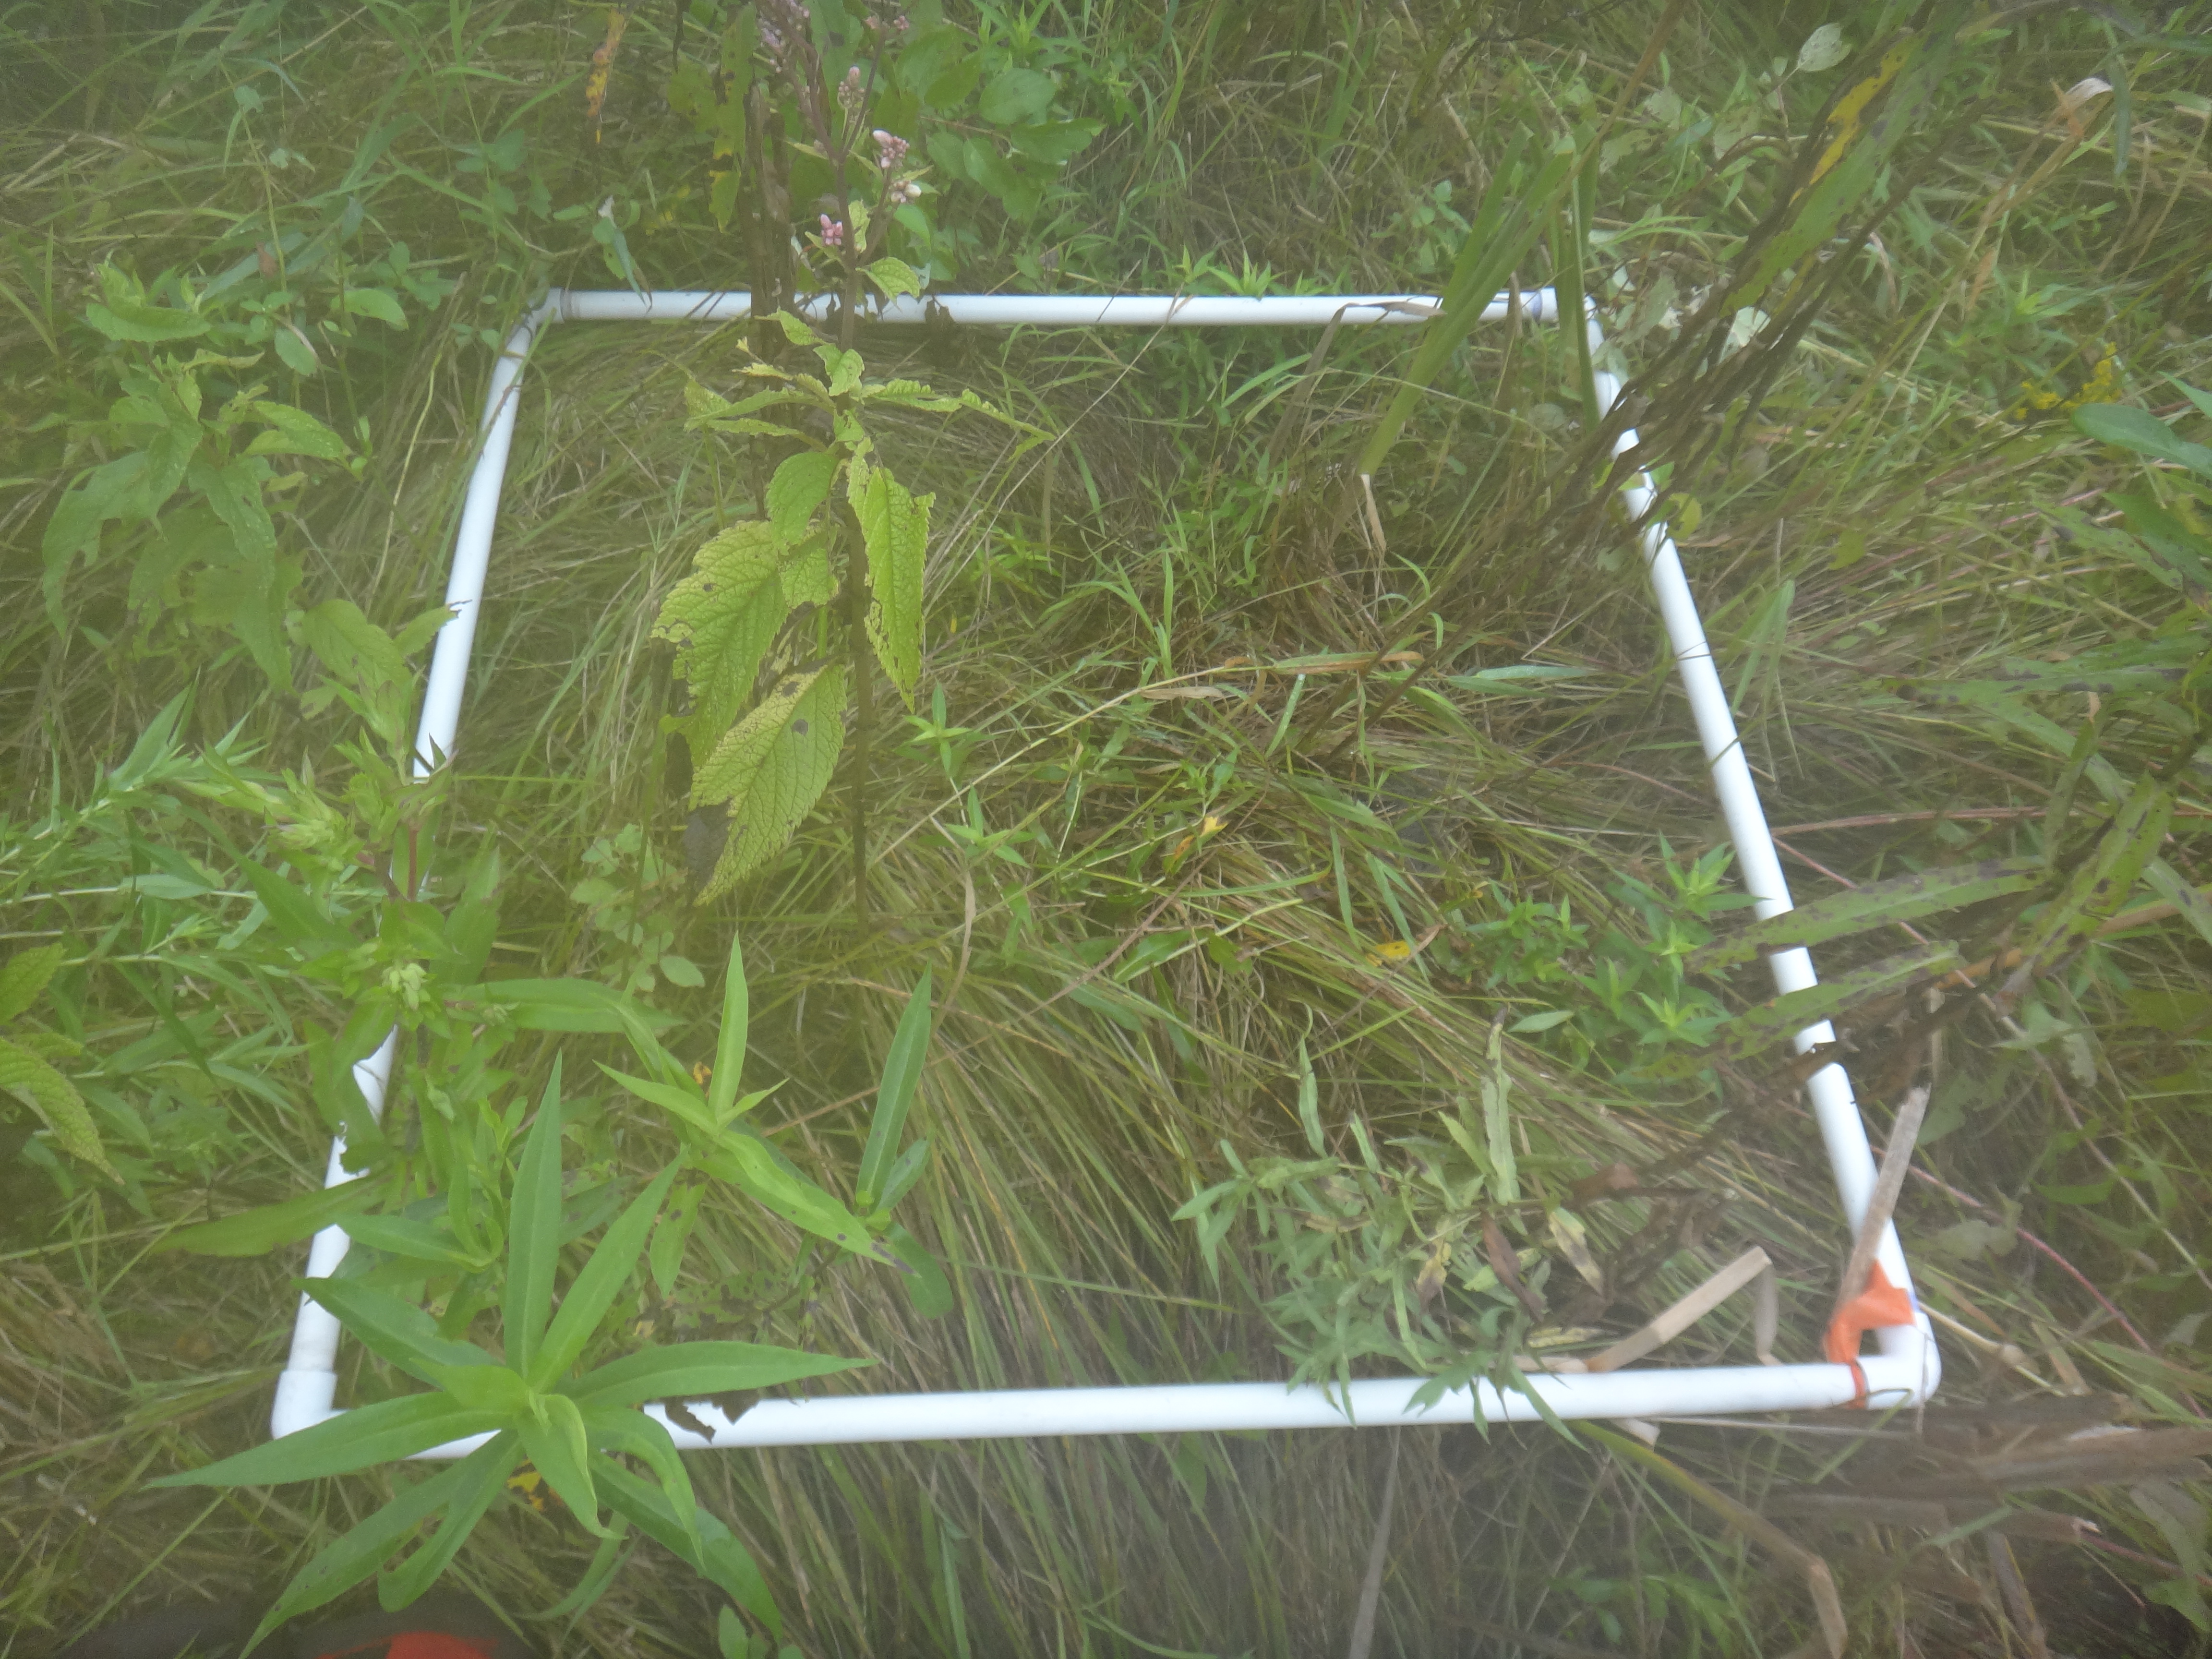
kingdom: Plantae
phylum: Tracheophyta
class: Liliopsida
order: Poales
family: Typhaceae
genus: Typha
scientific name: Typha
